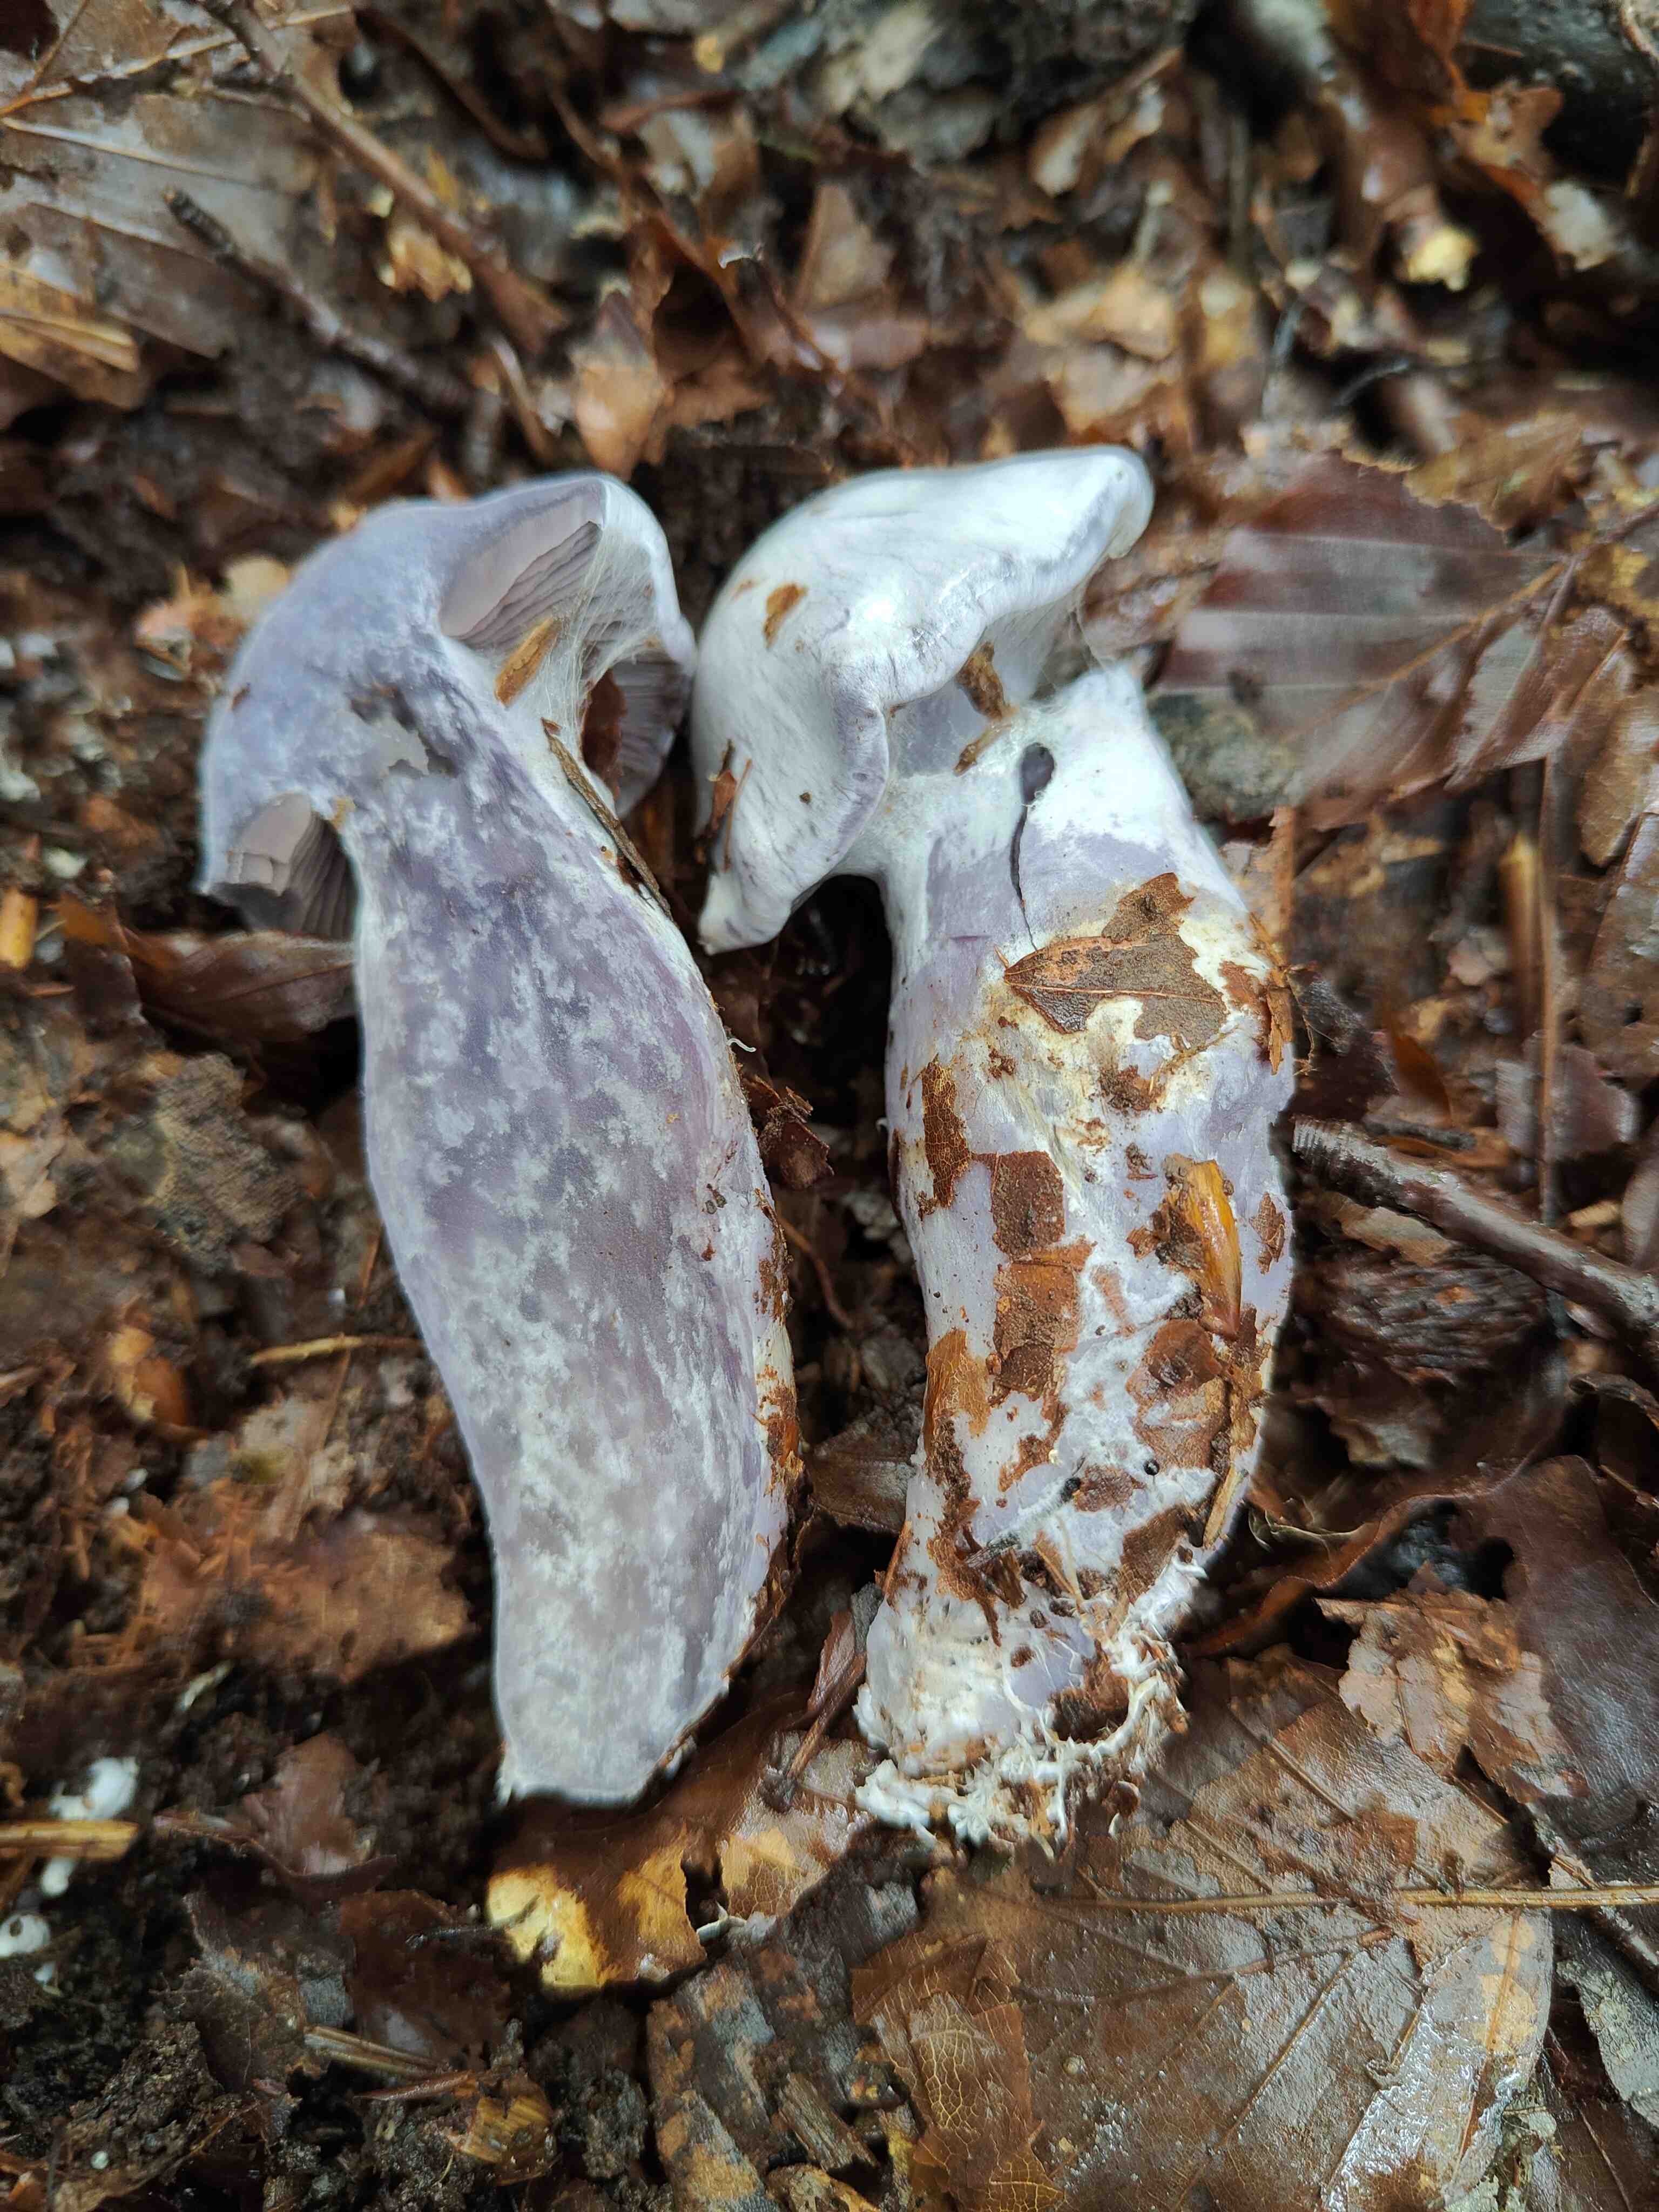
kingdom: Fungi
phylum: Basidiomycota
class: Agaricomycetes
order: Agaricales
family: Cortinariaceae
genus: Cortinarius
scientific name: Cortinarius alboviolaceus
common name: lysviolet slørhat
